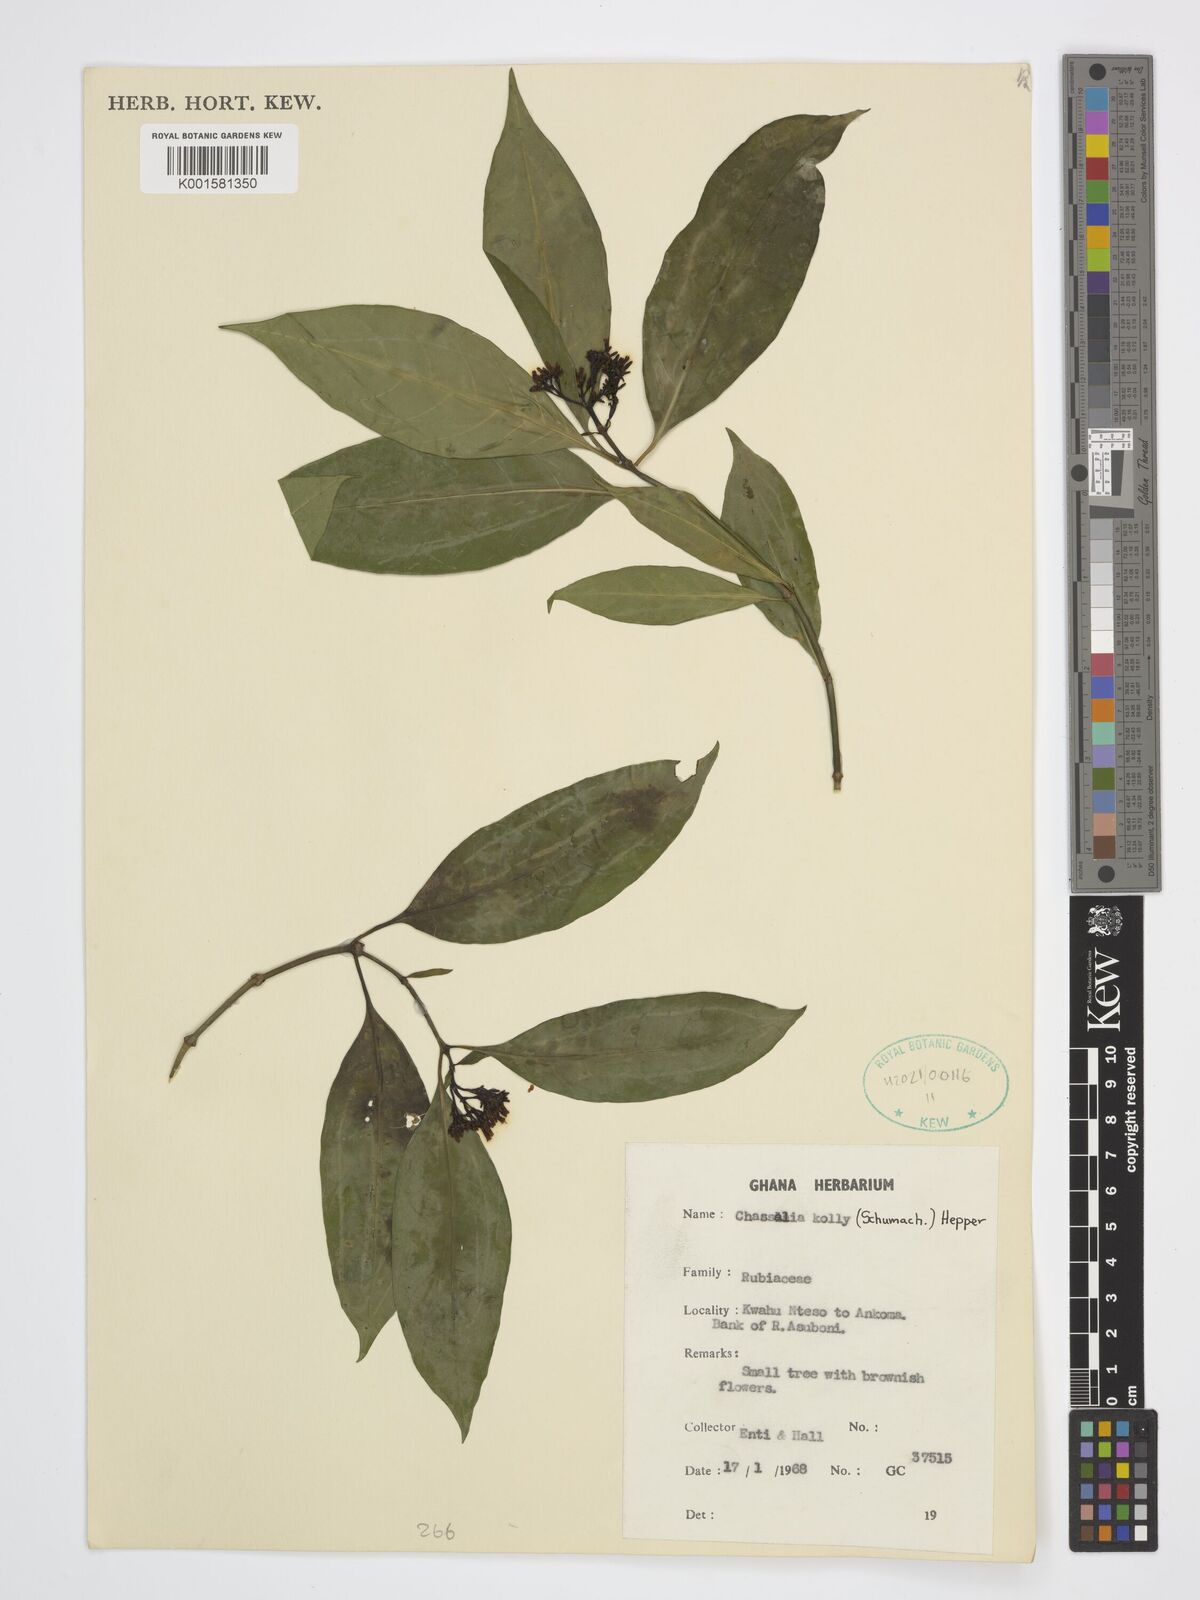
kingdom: Plantae
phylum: Tracheophyta
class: Magnoliopsida
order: Gentianales
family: Rubiaceae
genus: Chassalia
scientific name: Chassalia kolly
